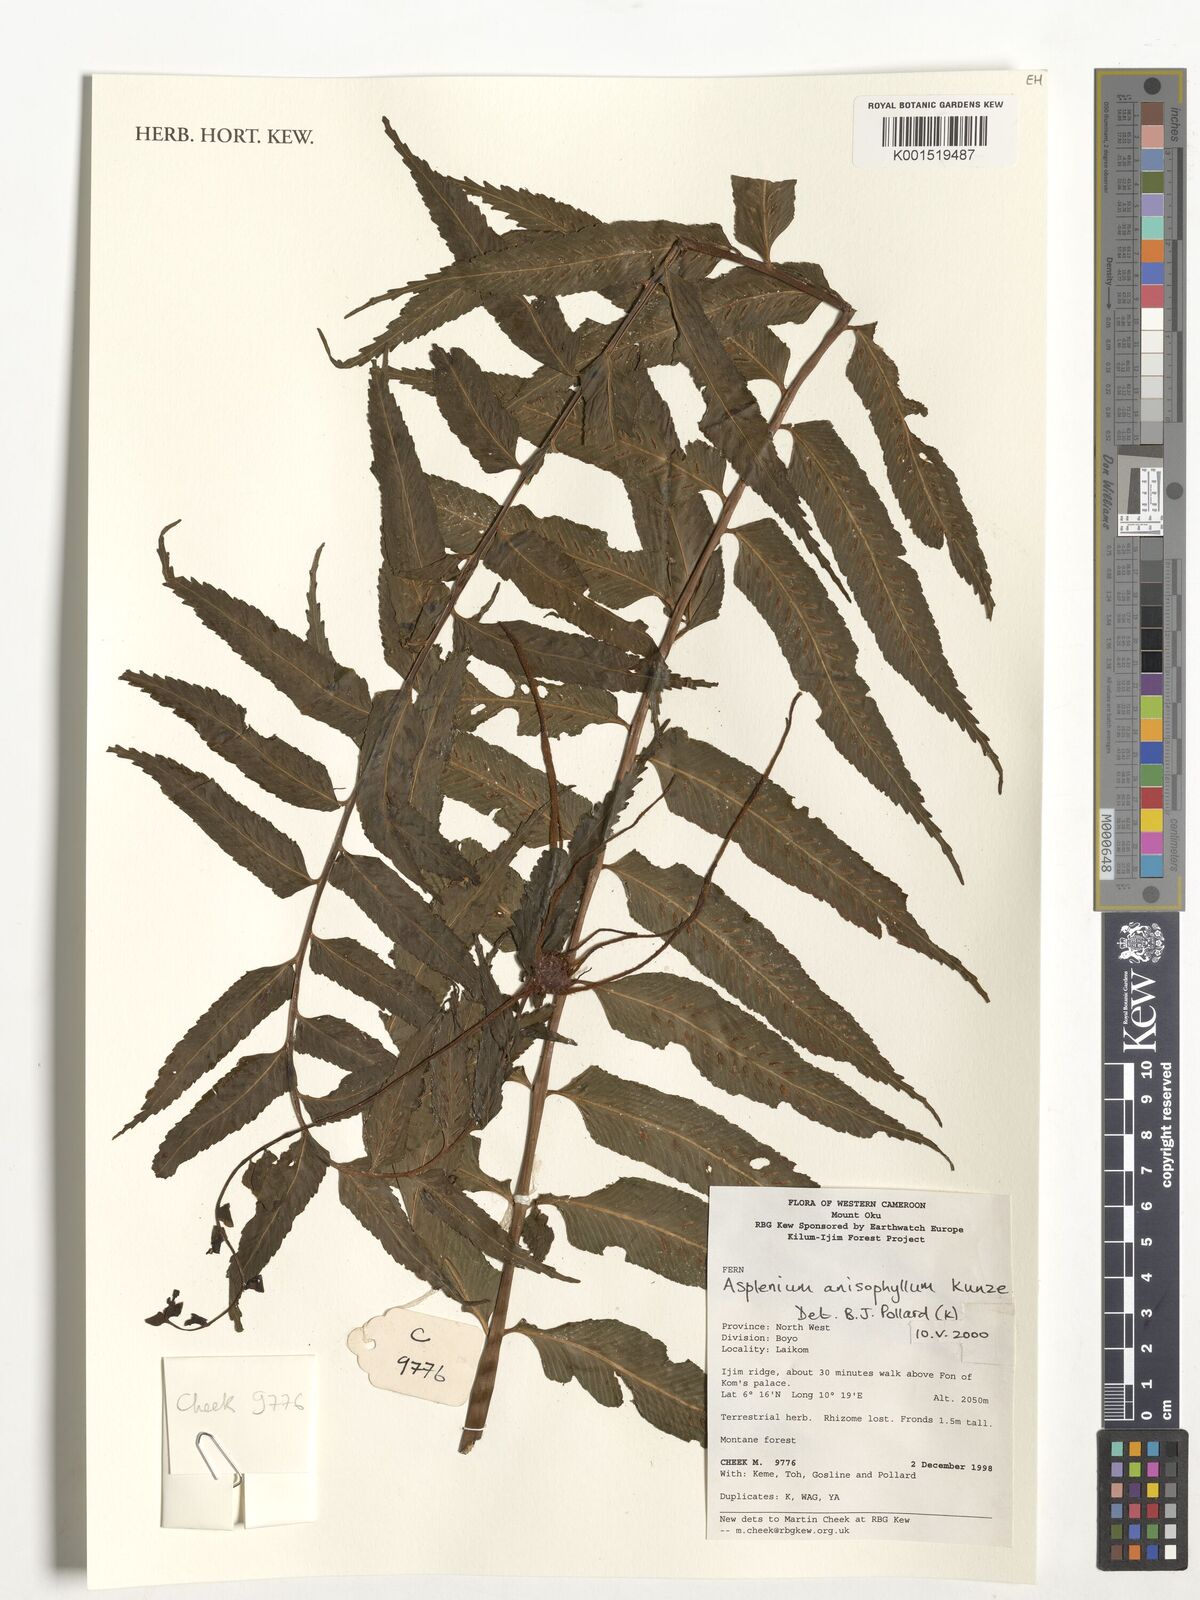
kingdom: Plantae
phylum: Tracheophyta
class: Polypodiopsida
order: Polypodiales
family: Aspleniaceae
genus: Asplenium
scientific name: Asplenium anisophyllum
